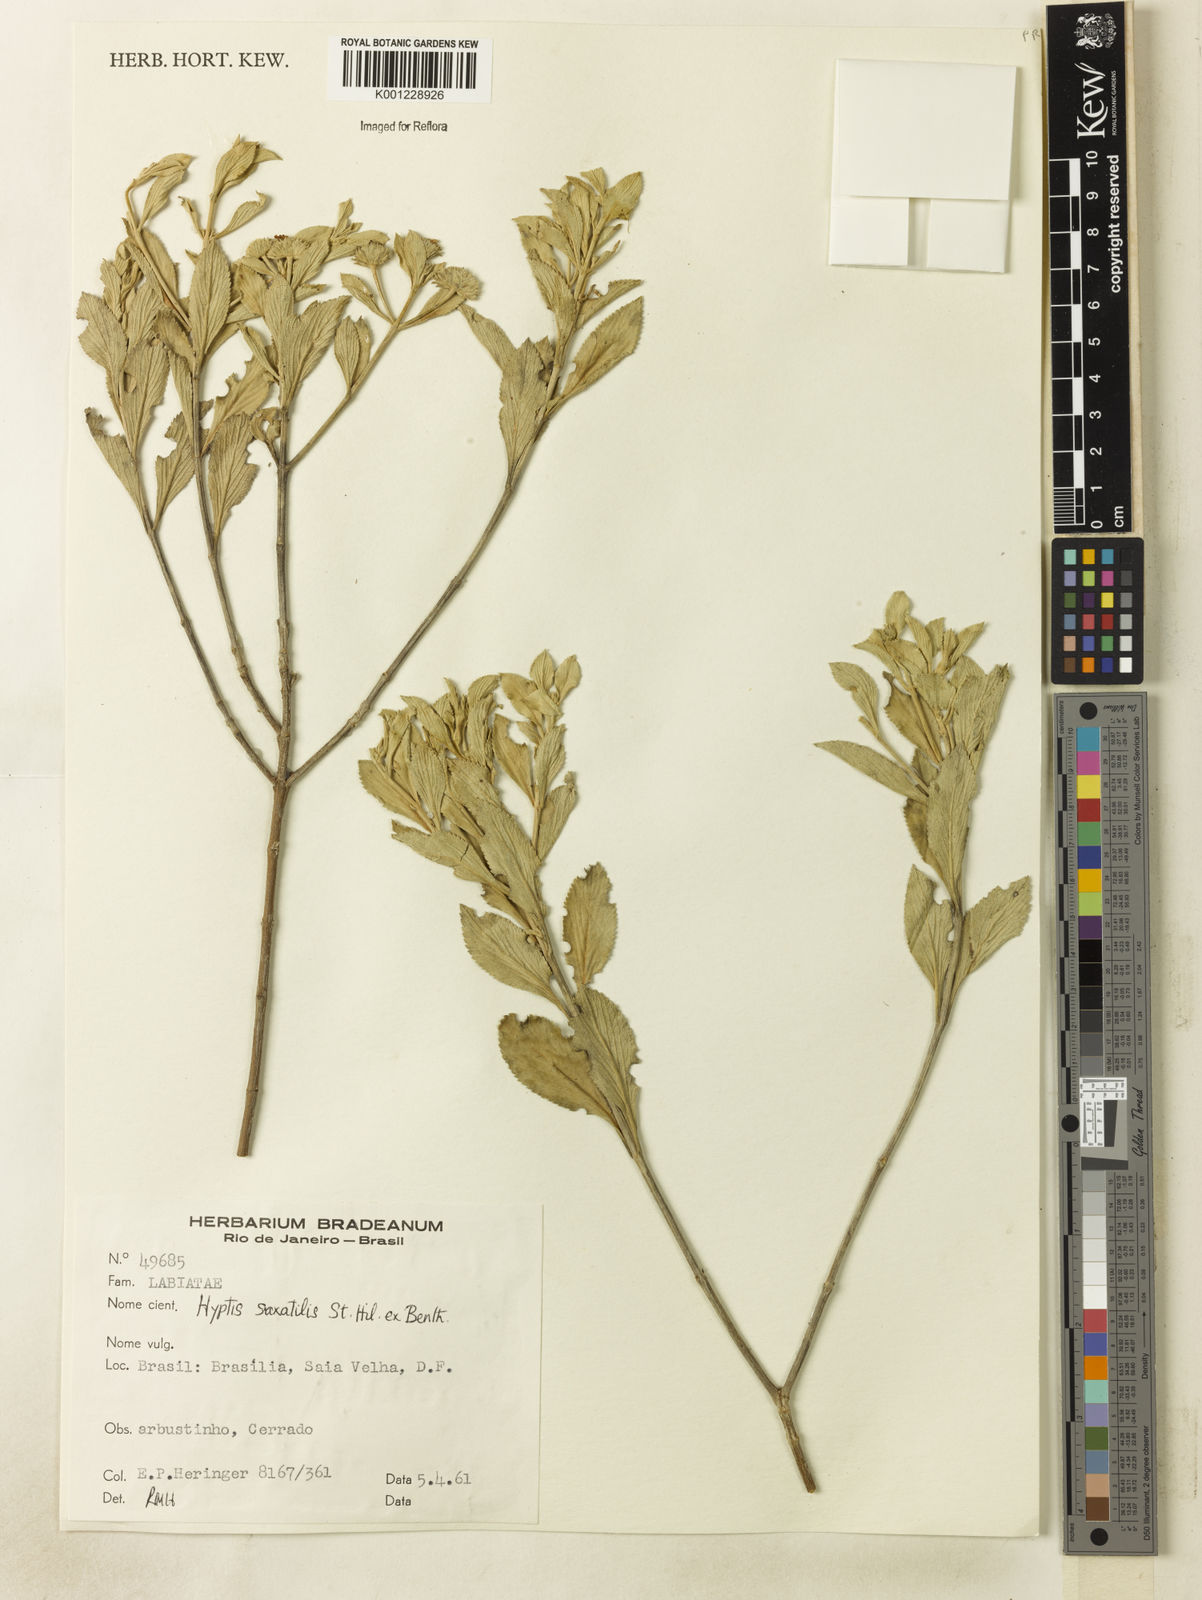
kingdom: Plantae
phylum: Tracheophyta
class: Magnoliopsida
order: Lamiales
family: Lamiaceae
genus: Hyptis
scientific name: Hyptis saxatilis
